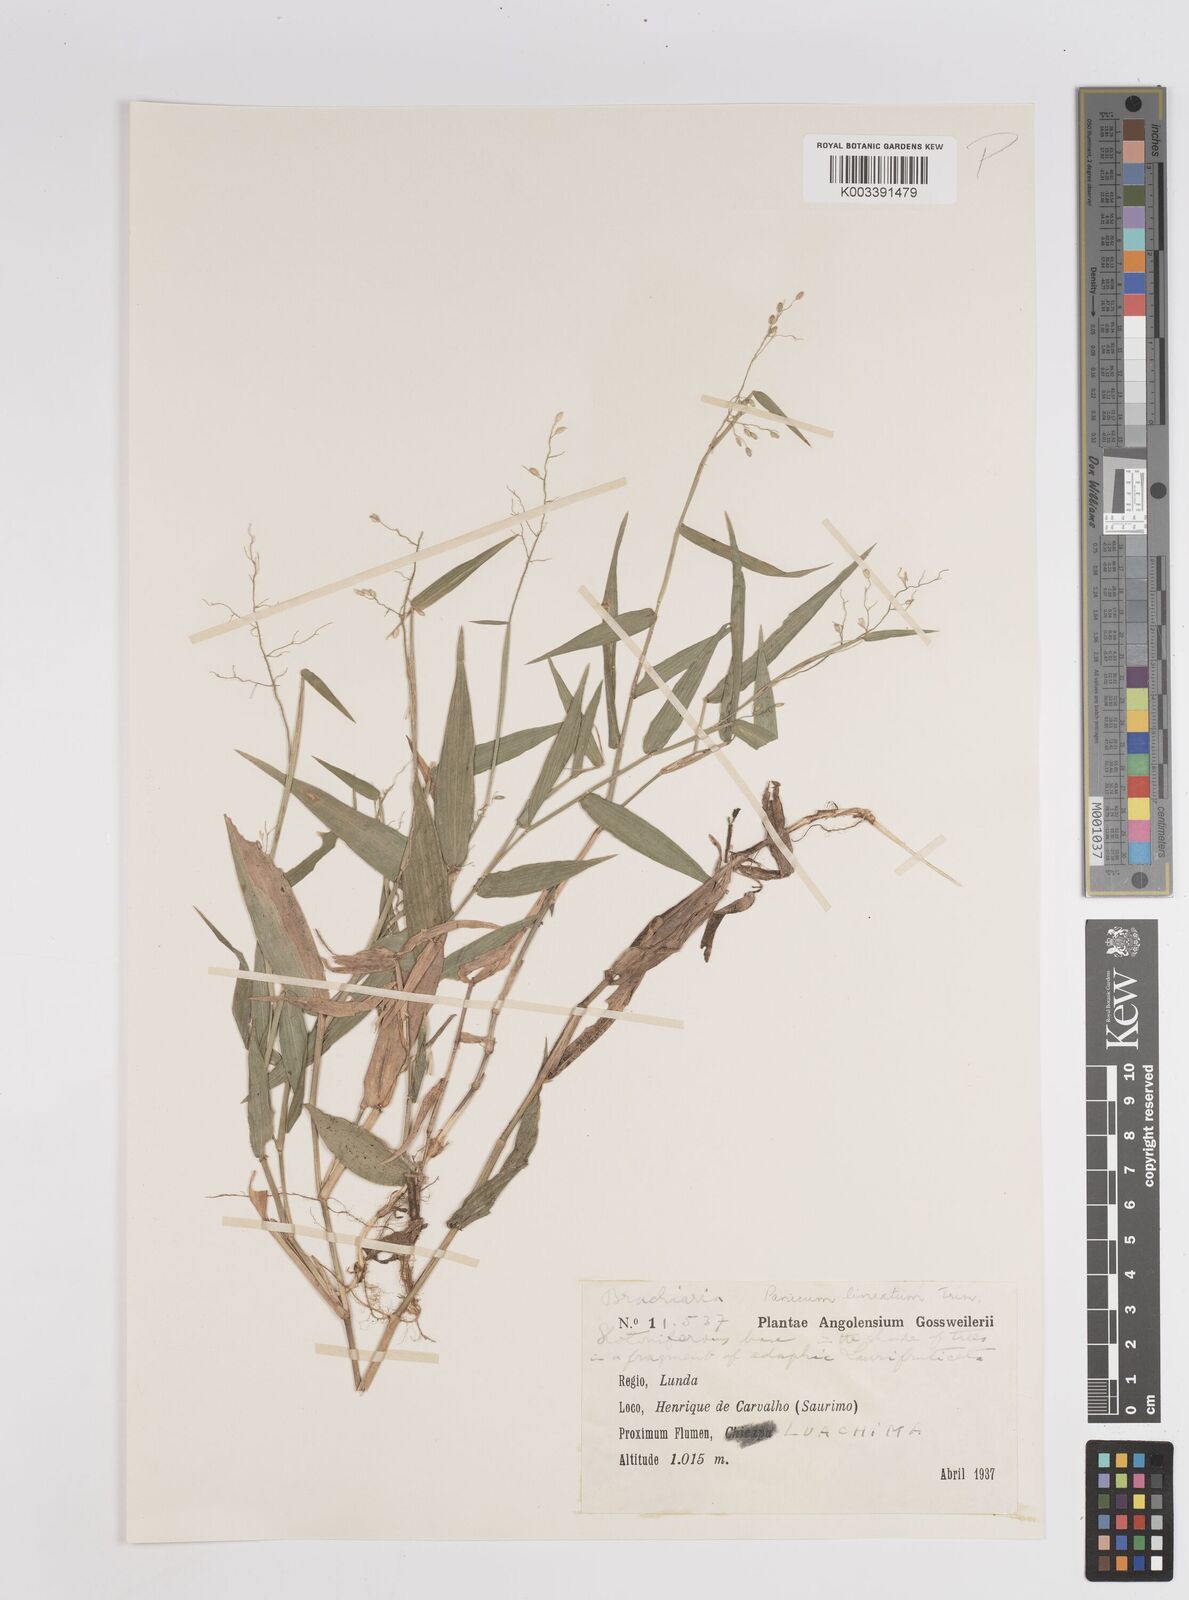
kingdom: Plantae
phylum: Tracheophyta
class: Liliopsida
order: Poales
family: Poaceae
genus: Adenochloa
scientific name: Adenochloa sadinii
